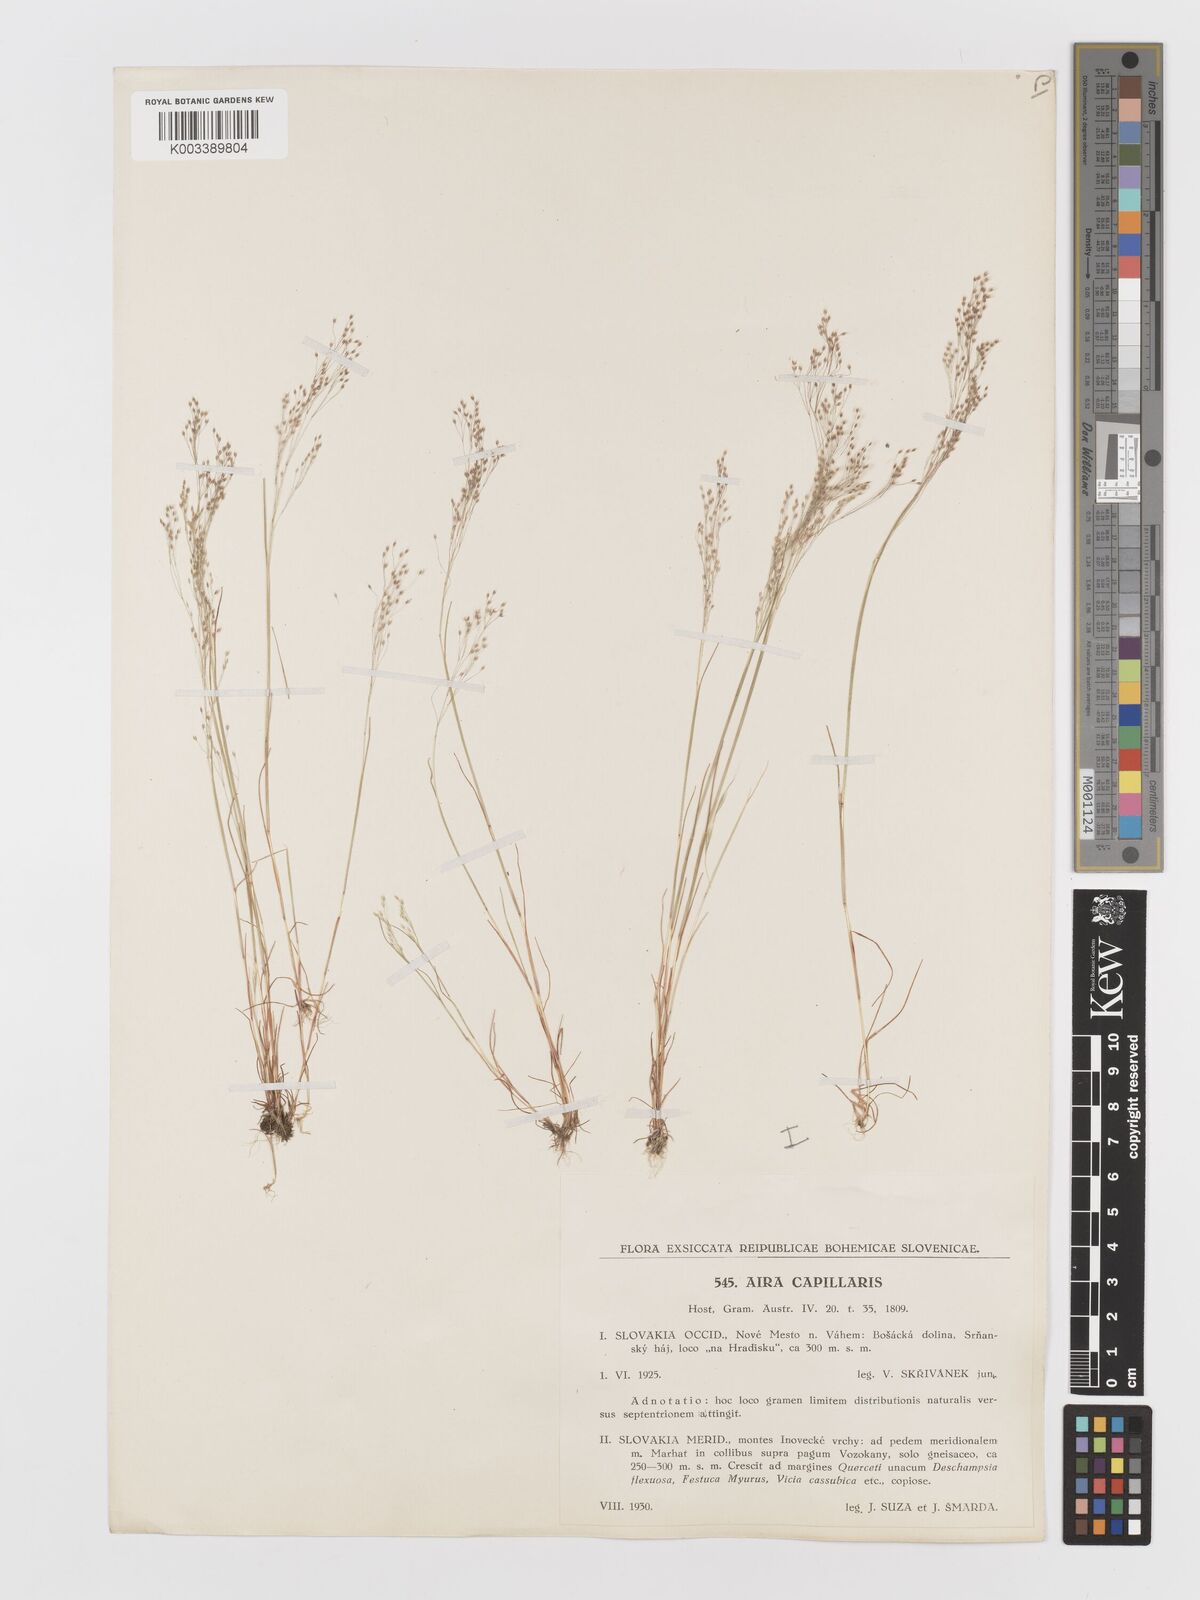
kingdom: Plantae
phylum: Tracheophyta
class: Liliopsida
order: Poales
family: Poaceae
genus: Aira
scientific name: Aira elegans
